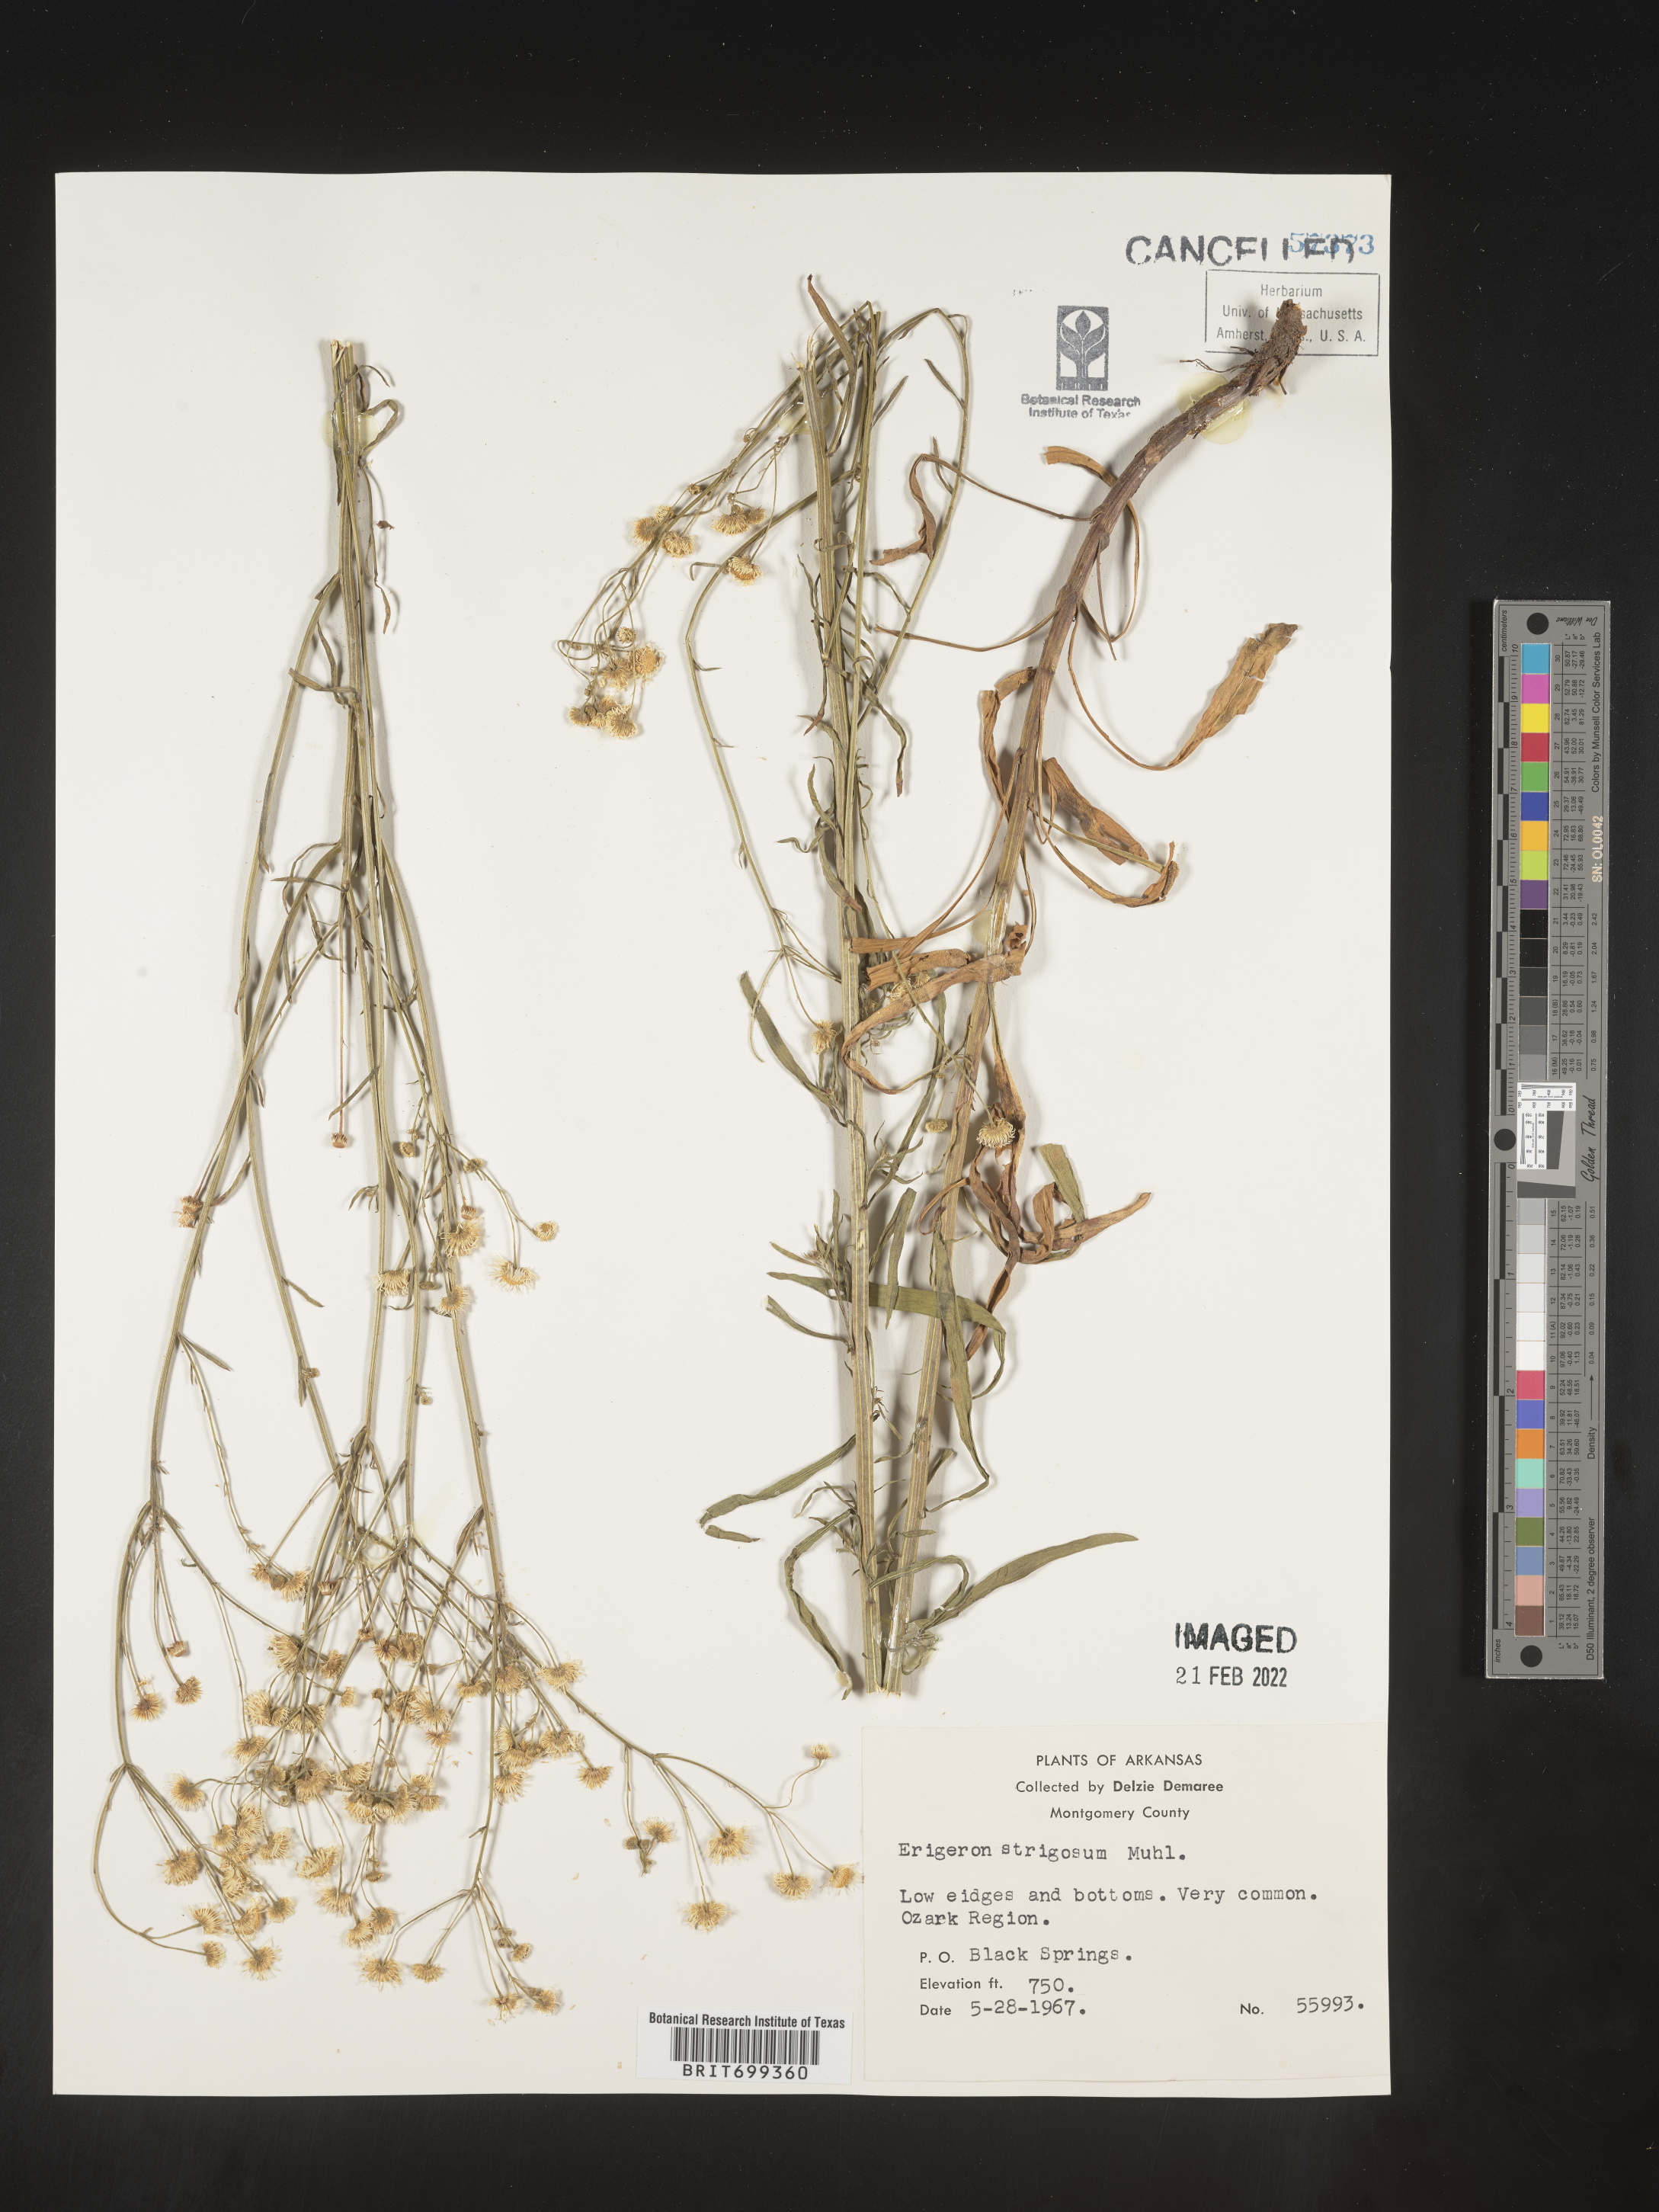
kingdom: Plantae
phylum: Tracheophyta
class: Magnoliopsida
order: Asterales
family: Asteraceae
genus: Erigeron
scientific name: Erigeron strigosus
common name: Common eastern fleabane
